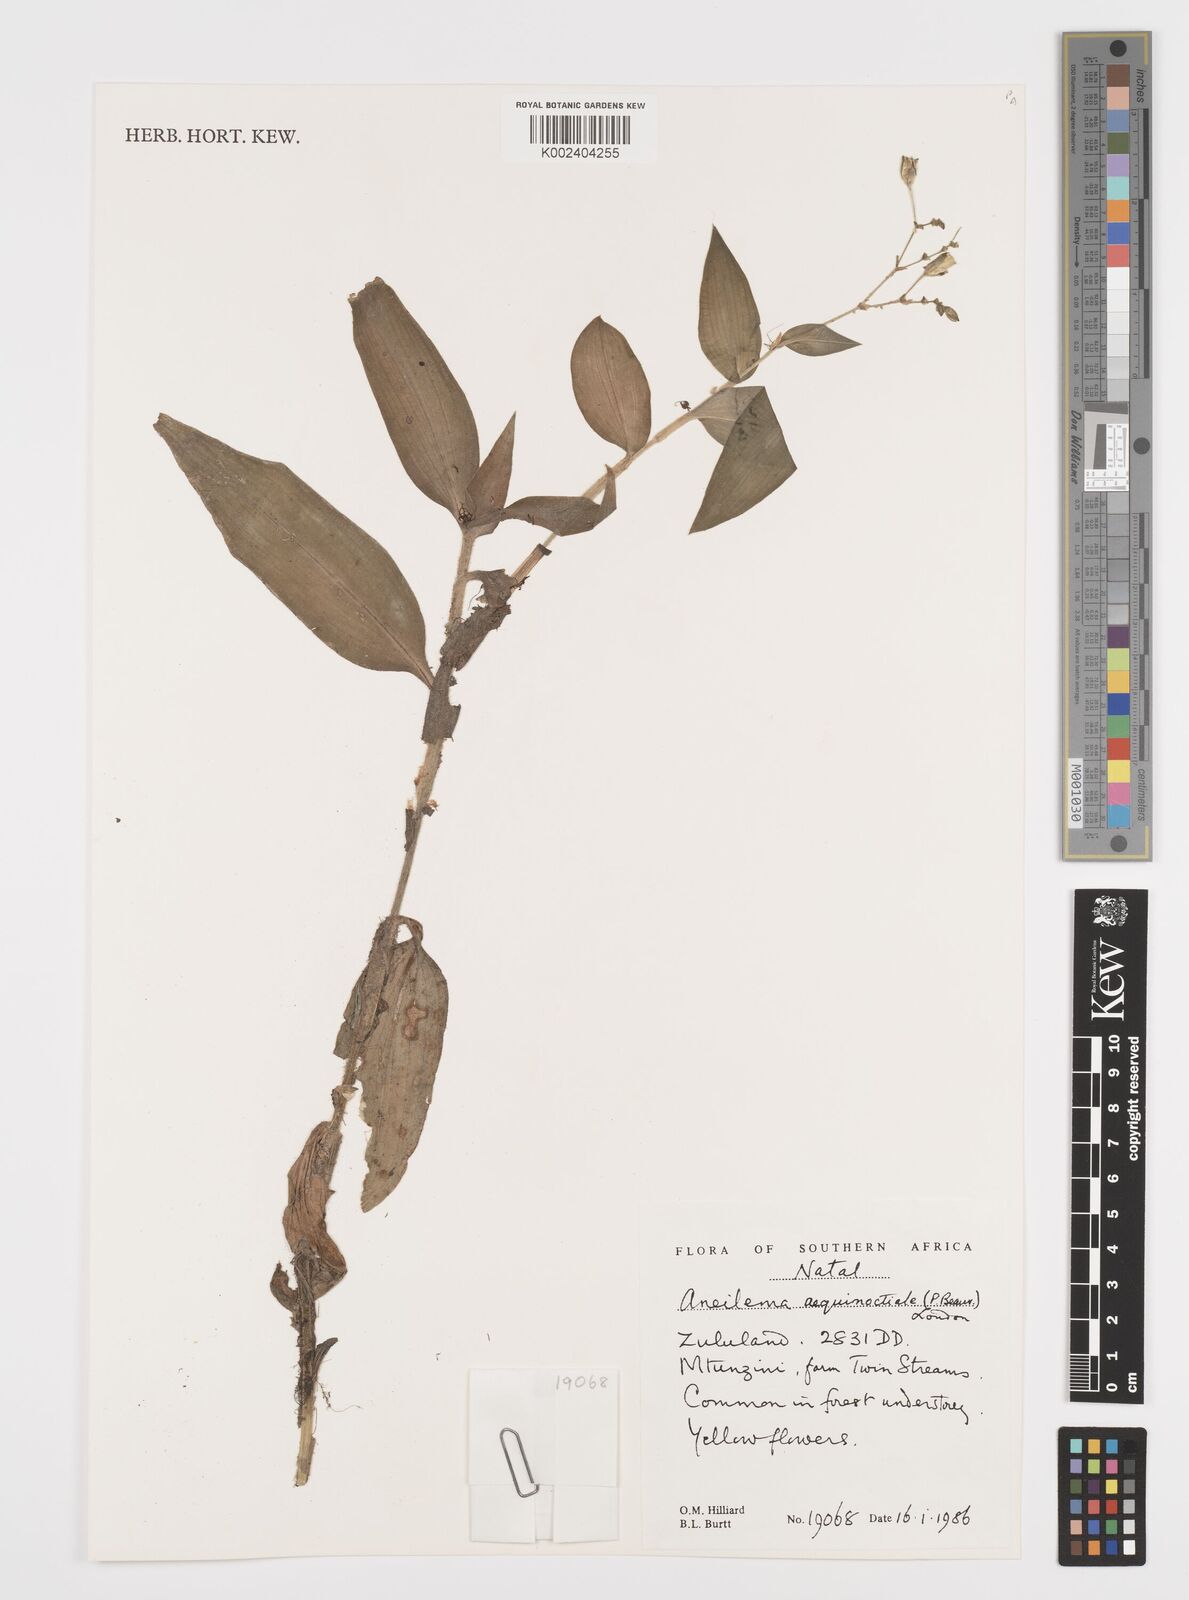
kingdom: Plantae
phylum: Tracheophyta
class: Liliopsida
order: Commelinales
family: Commelinaceae
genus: Aneilema
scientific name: Aneilema aequinoctiale
